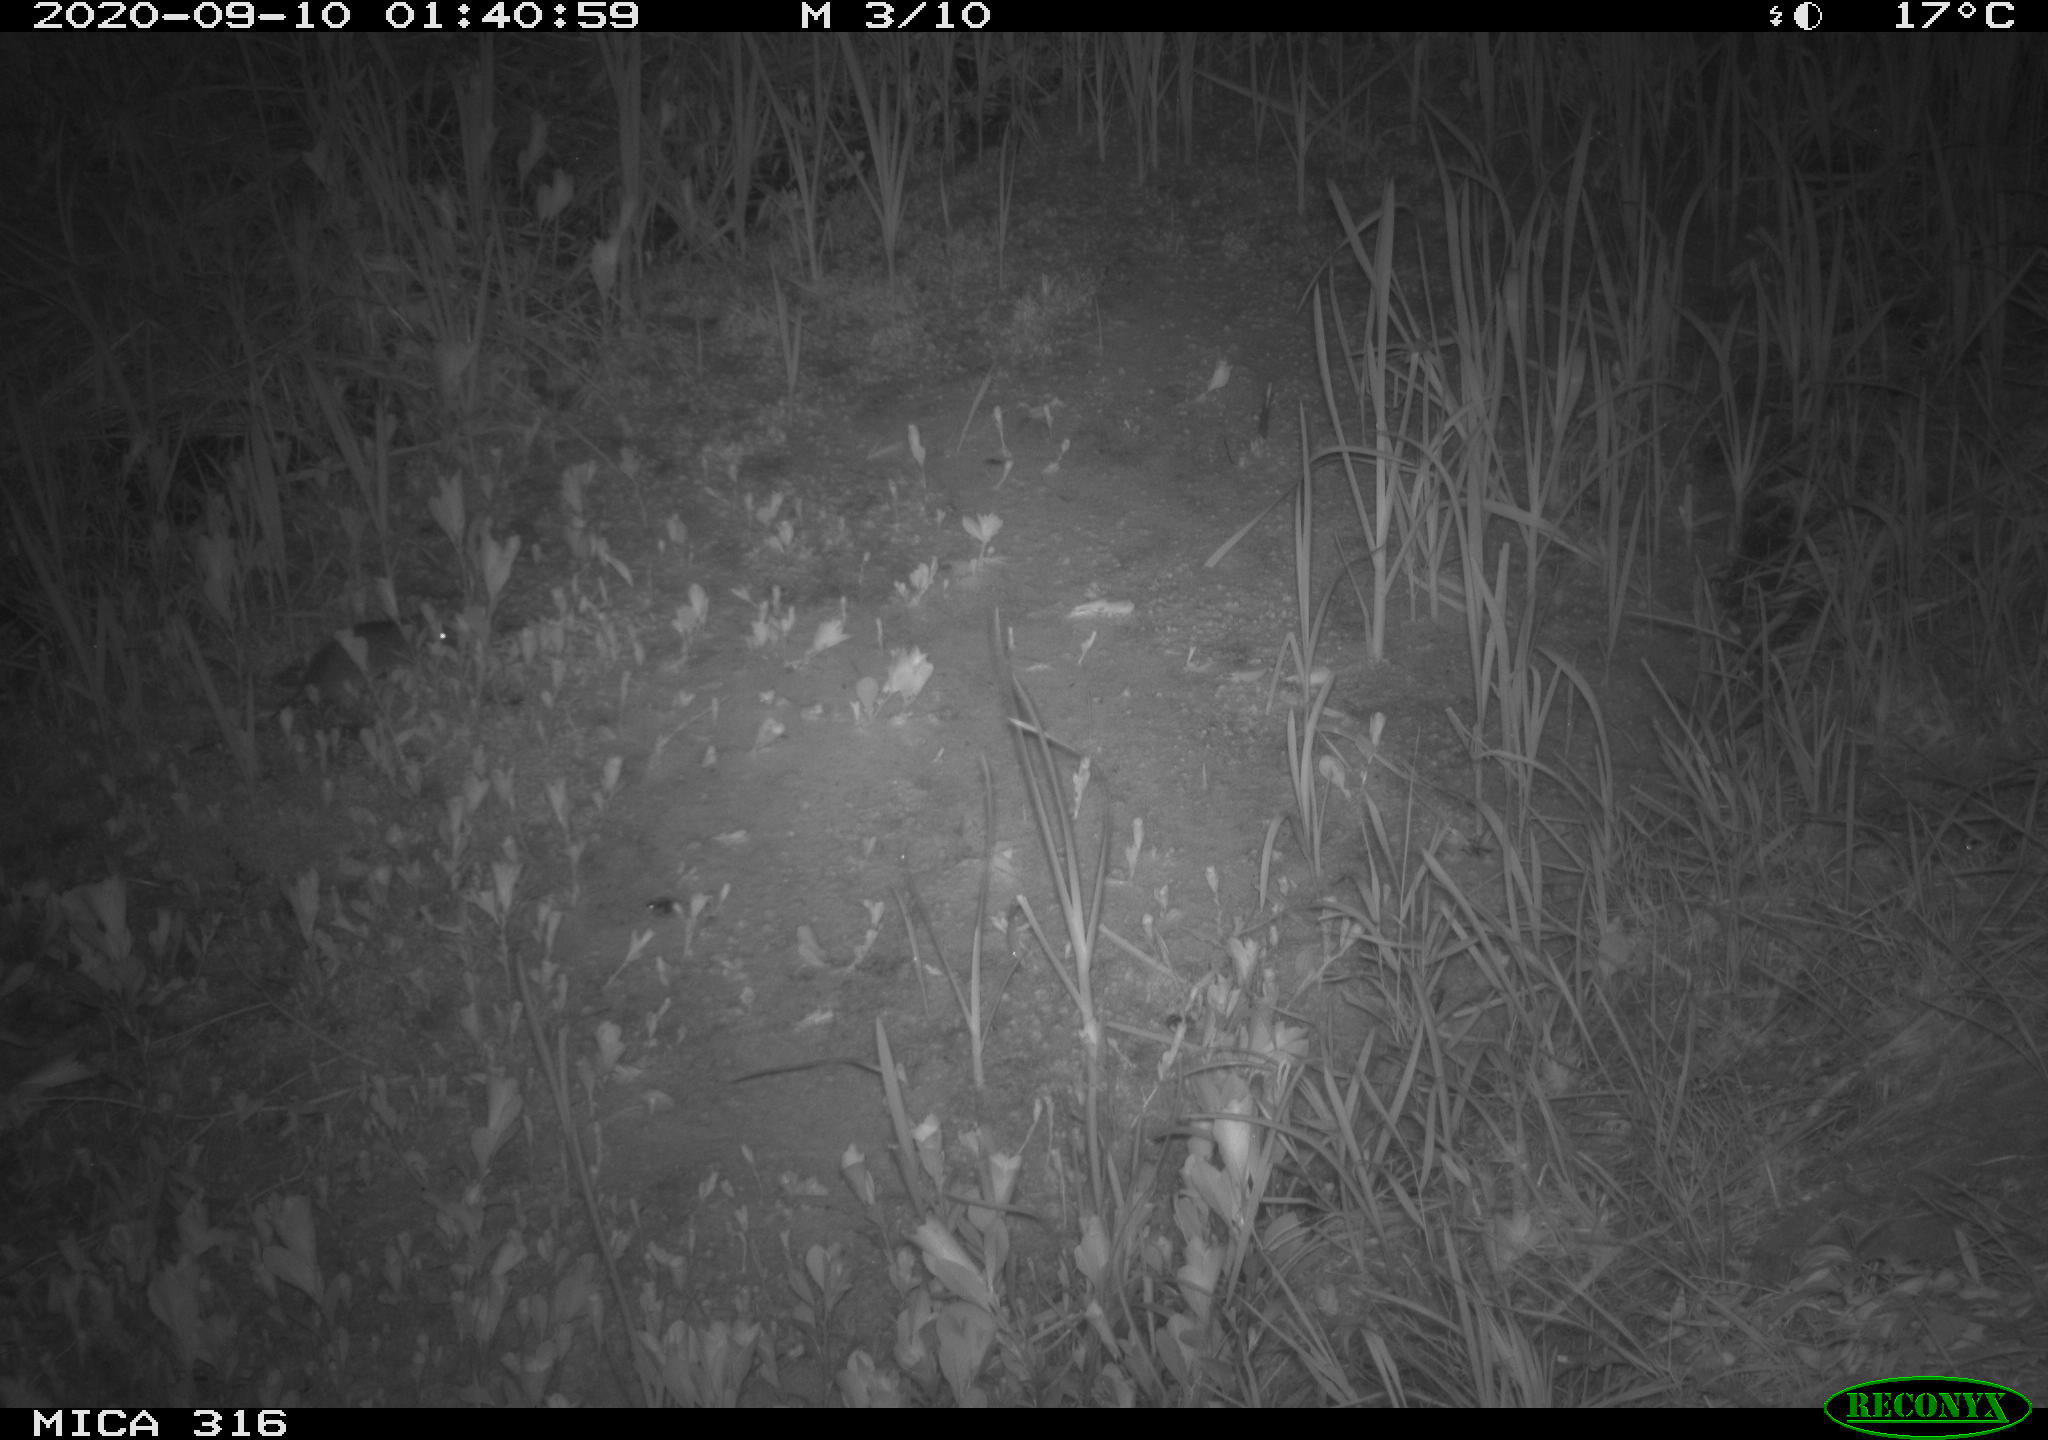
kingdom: Animalia
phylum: Chordata
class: Mammalia
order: Rodentia
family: Muridae
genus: Rattus
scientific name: Rattus norvegicus
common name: Brown rat
